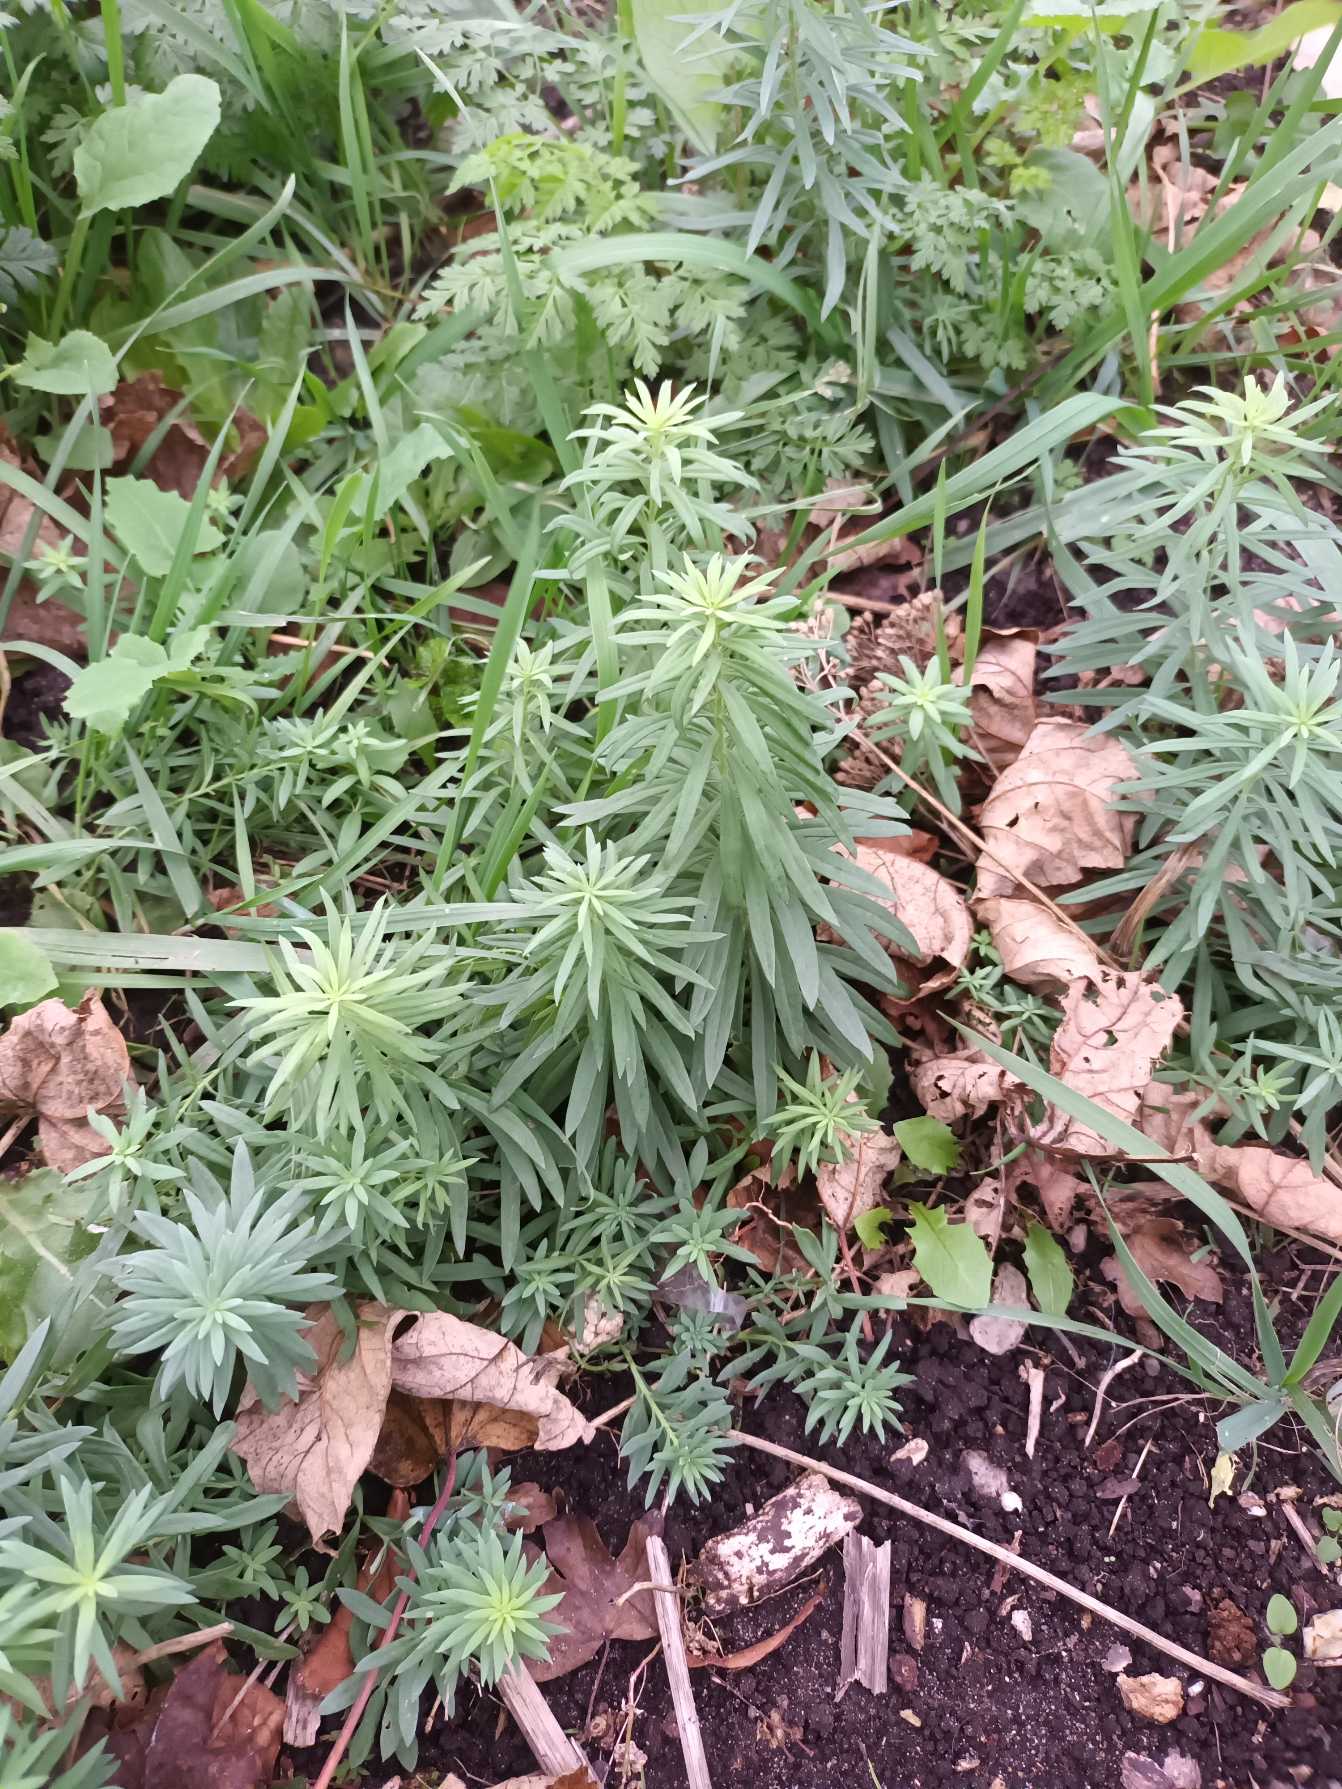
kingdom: Plantae
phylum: Tracheophyta
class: Magnoliopsida
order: Lamiales
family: Plantaginaceae
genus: Linaria
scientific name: Linaria vulgaris
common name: Almindelig torskemund
